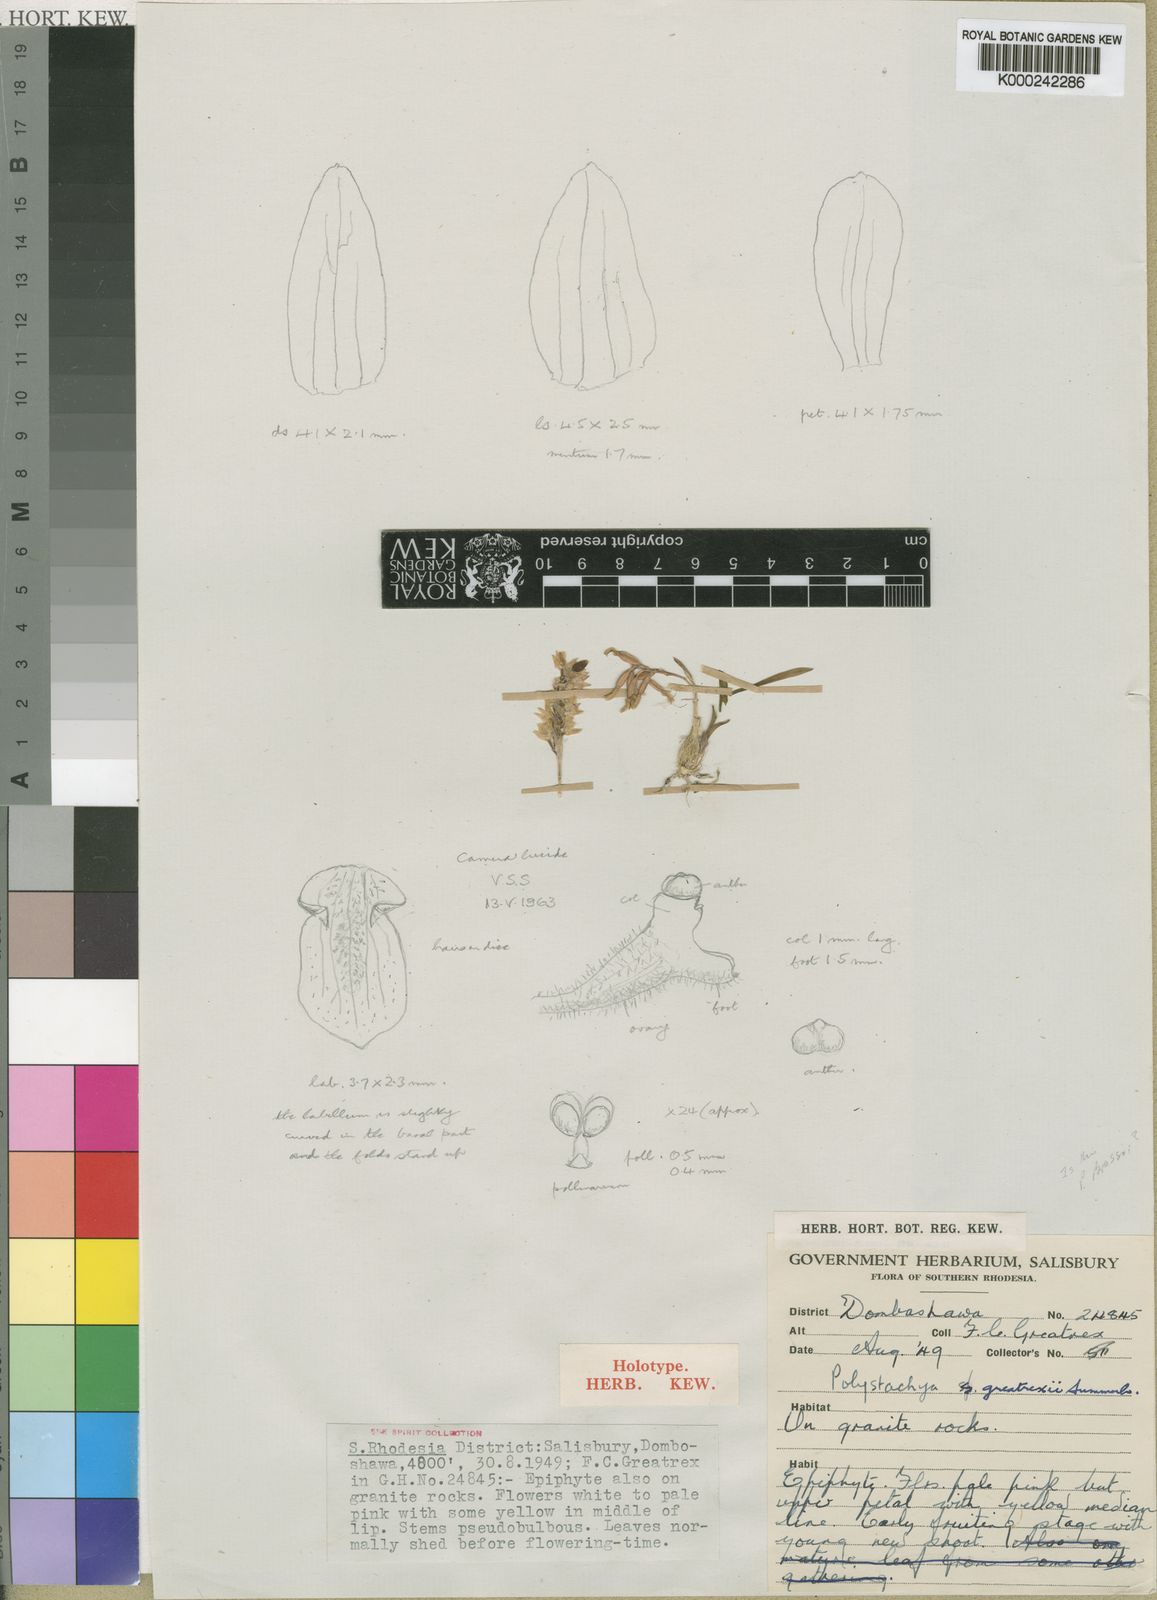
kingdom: Plantae
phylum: Tracheophyta
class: Liliopsida
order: Asparagales
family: Orchidaceae
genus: Polystachya
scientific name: Polystachya greatrexii
